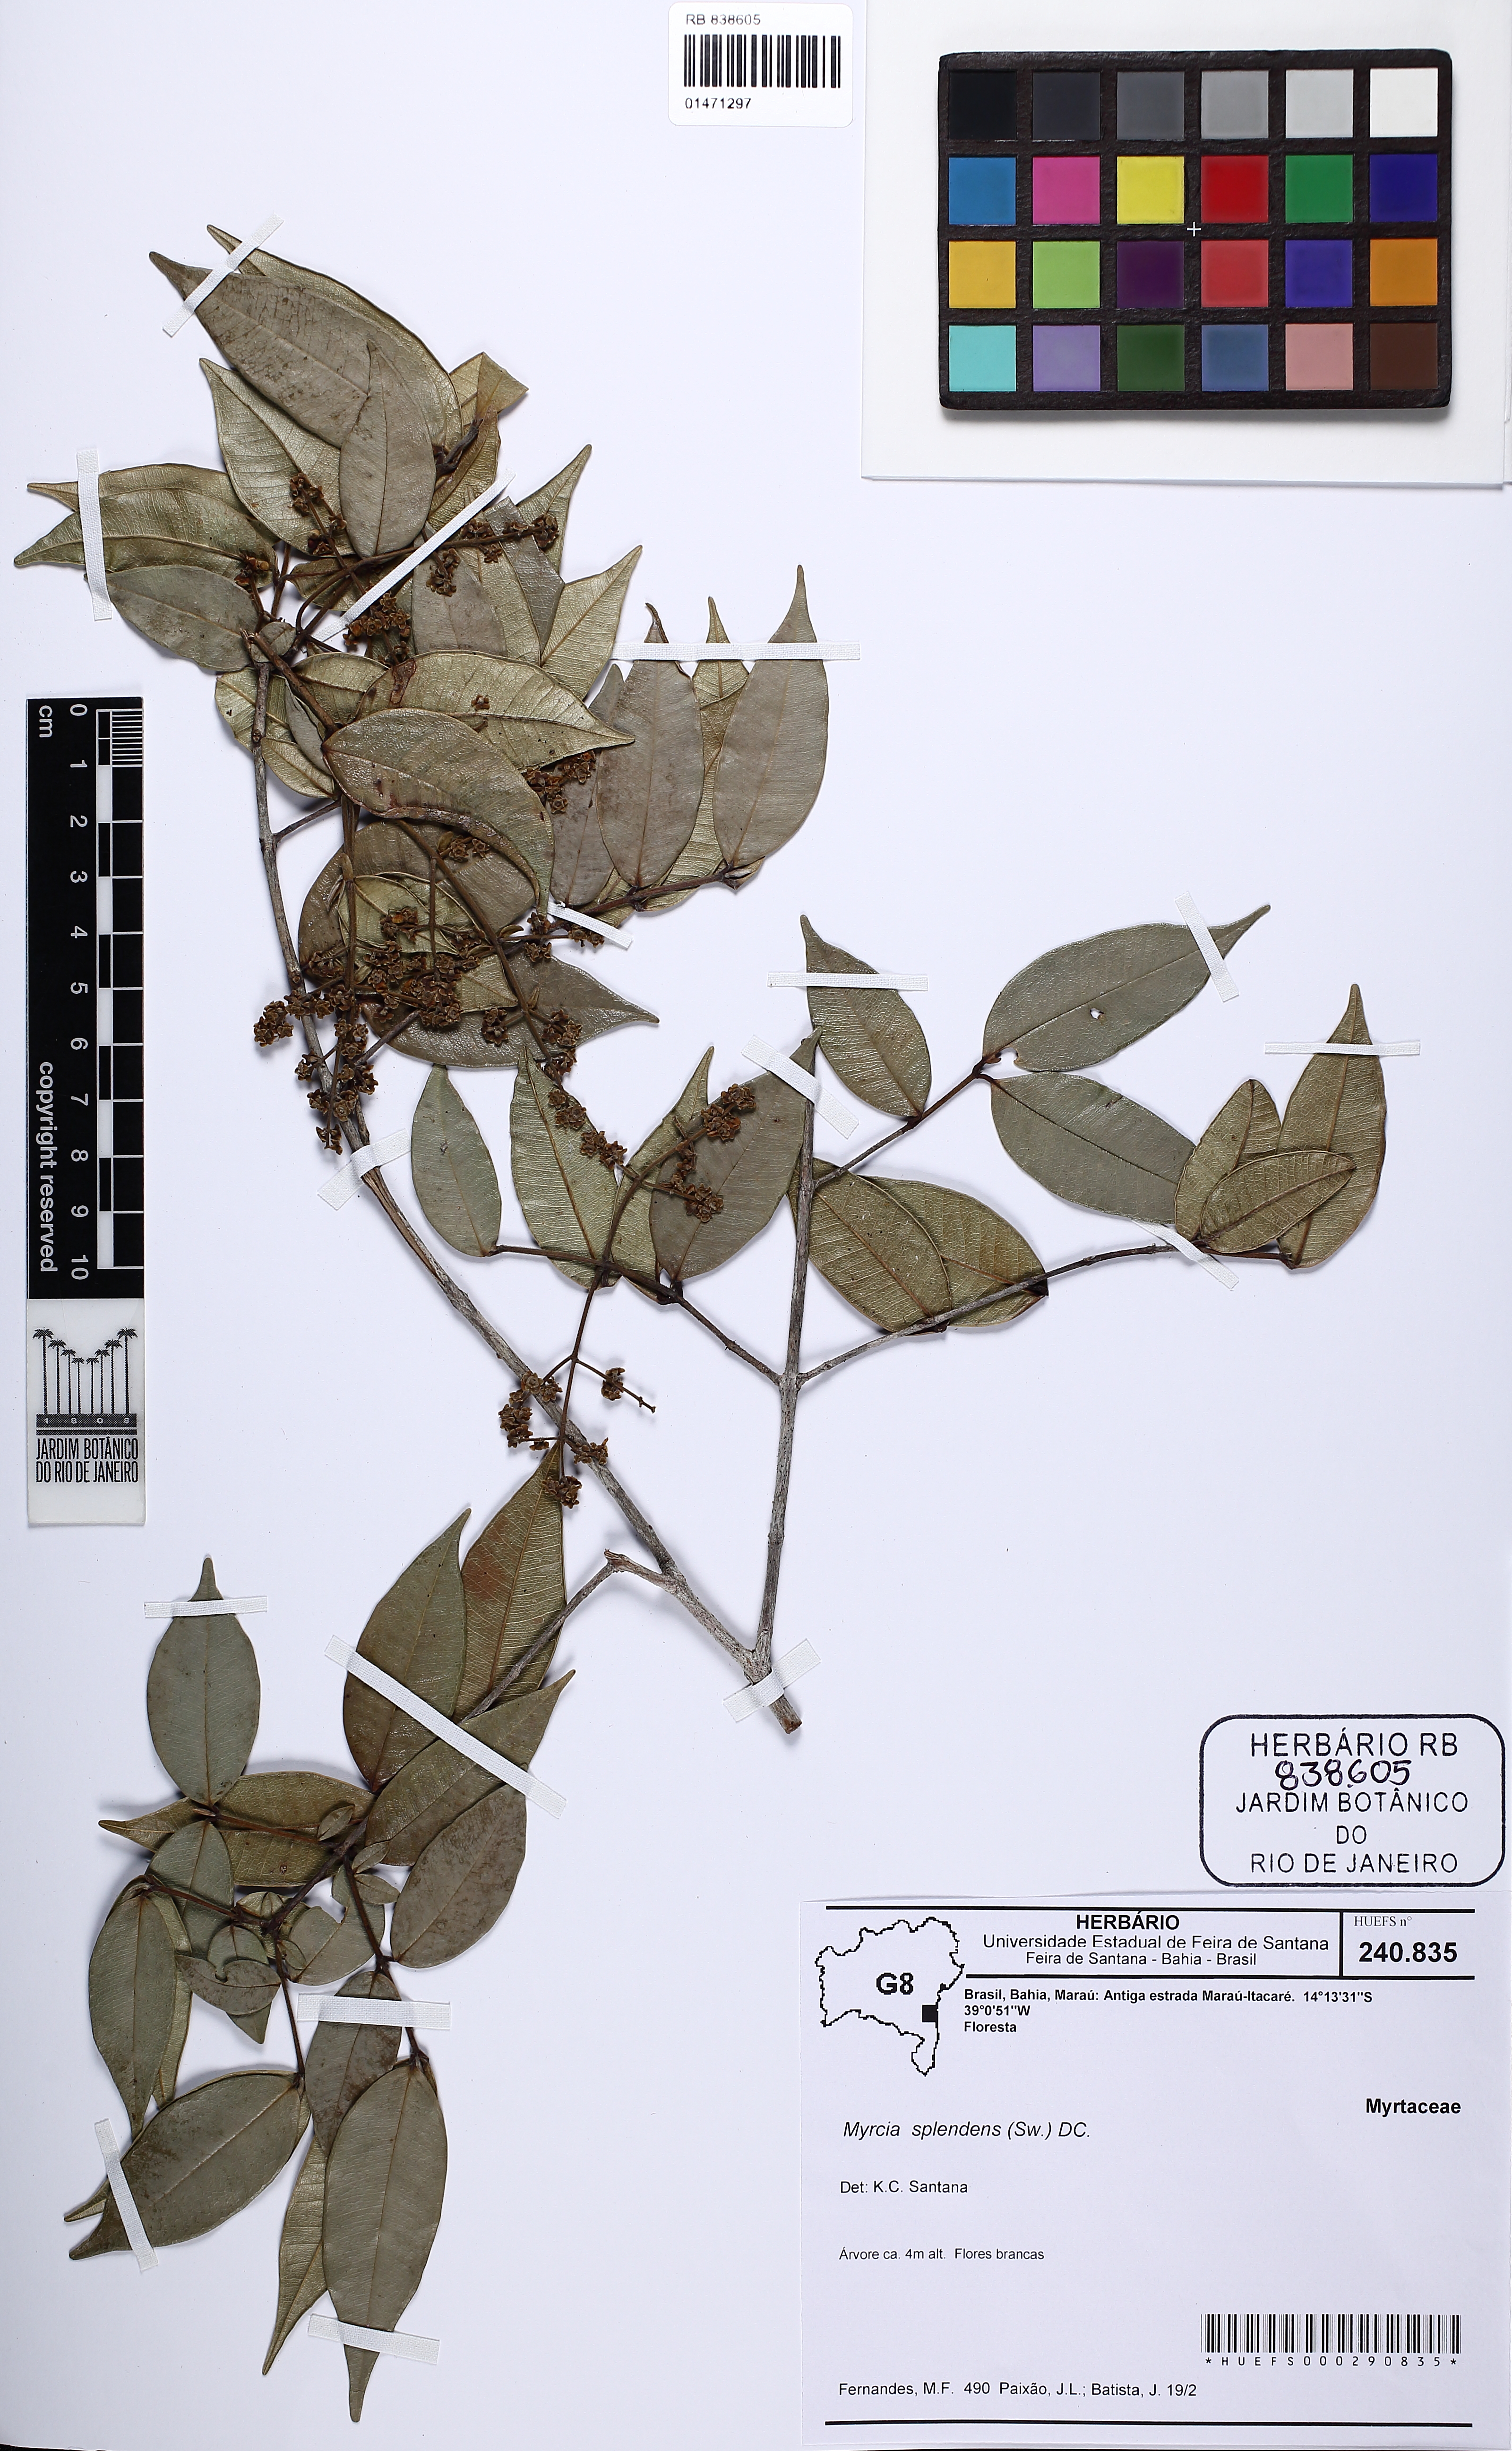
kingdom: Plantae
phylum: Tracheophyta
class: Magnoliopsida
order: Myrtales
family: Myrtaceae
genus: Myrcia
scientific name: Myrcia splendens
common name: Surinam cherry
